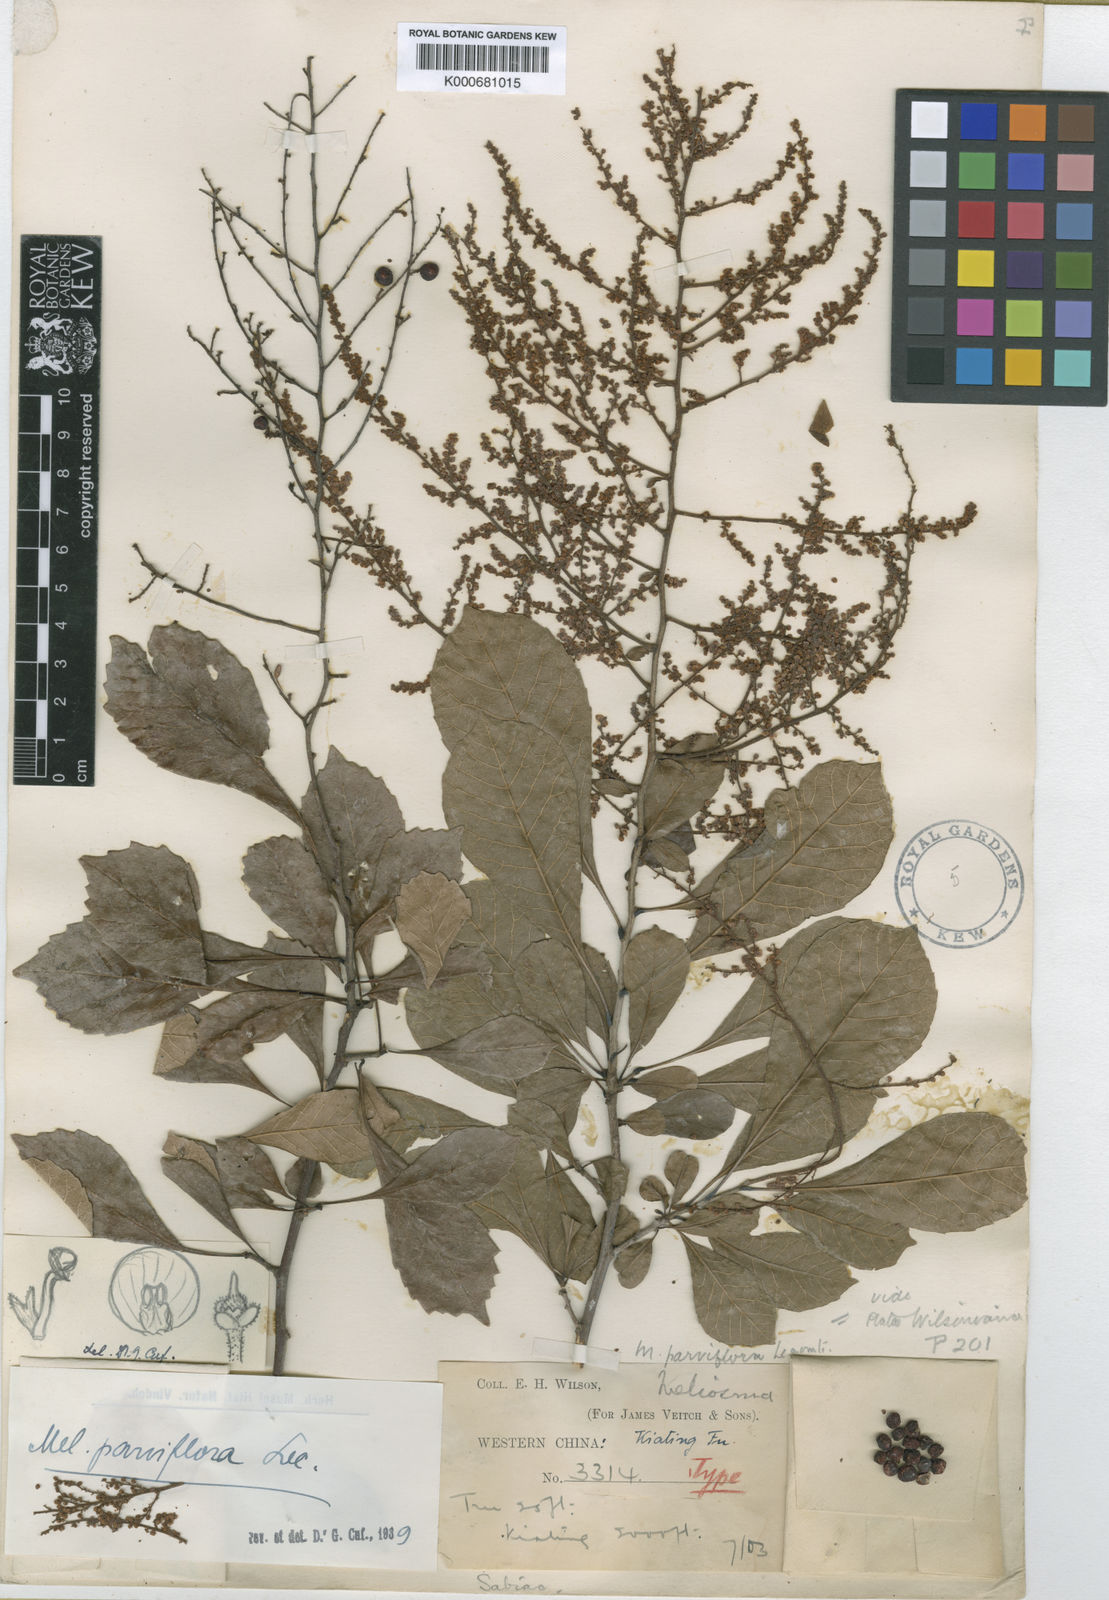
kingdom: Plantae
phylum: Tracheophyta
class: Magnoliopsida
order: Proteales
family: Sabiaceae
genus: Meliosma
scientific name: Meliosma parviflora
